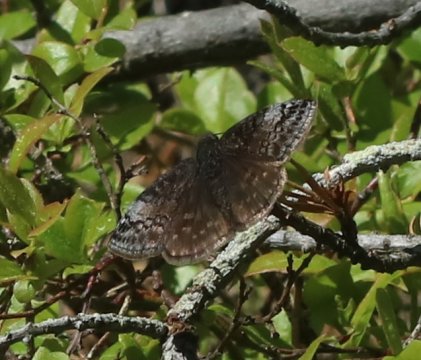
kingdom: Animalia
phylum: Arthropoda
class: Insecta
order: Lepidoptera
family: Hesperiidae
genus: Erynnis
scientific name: Erynnis icelus
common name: Dreamy Duskywing
